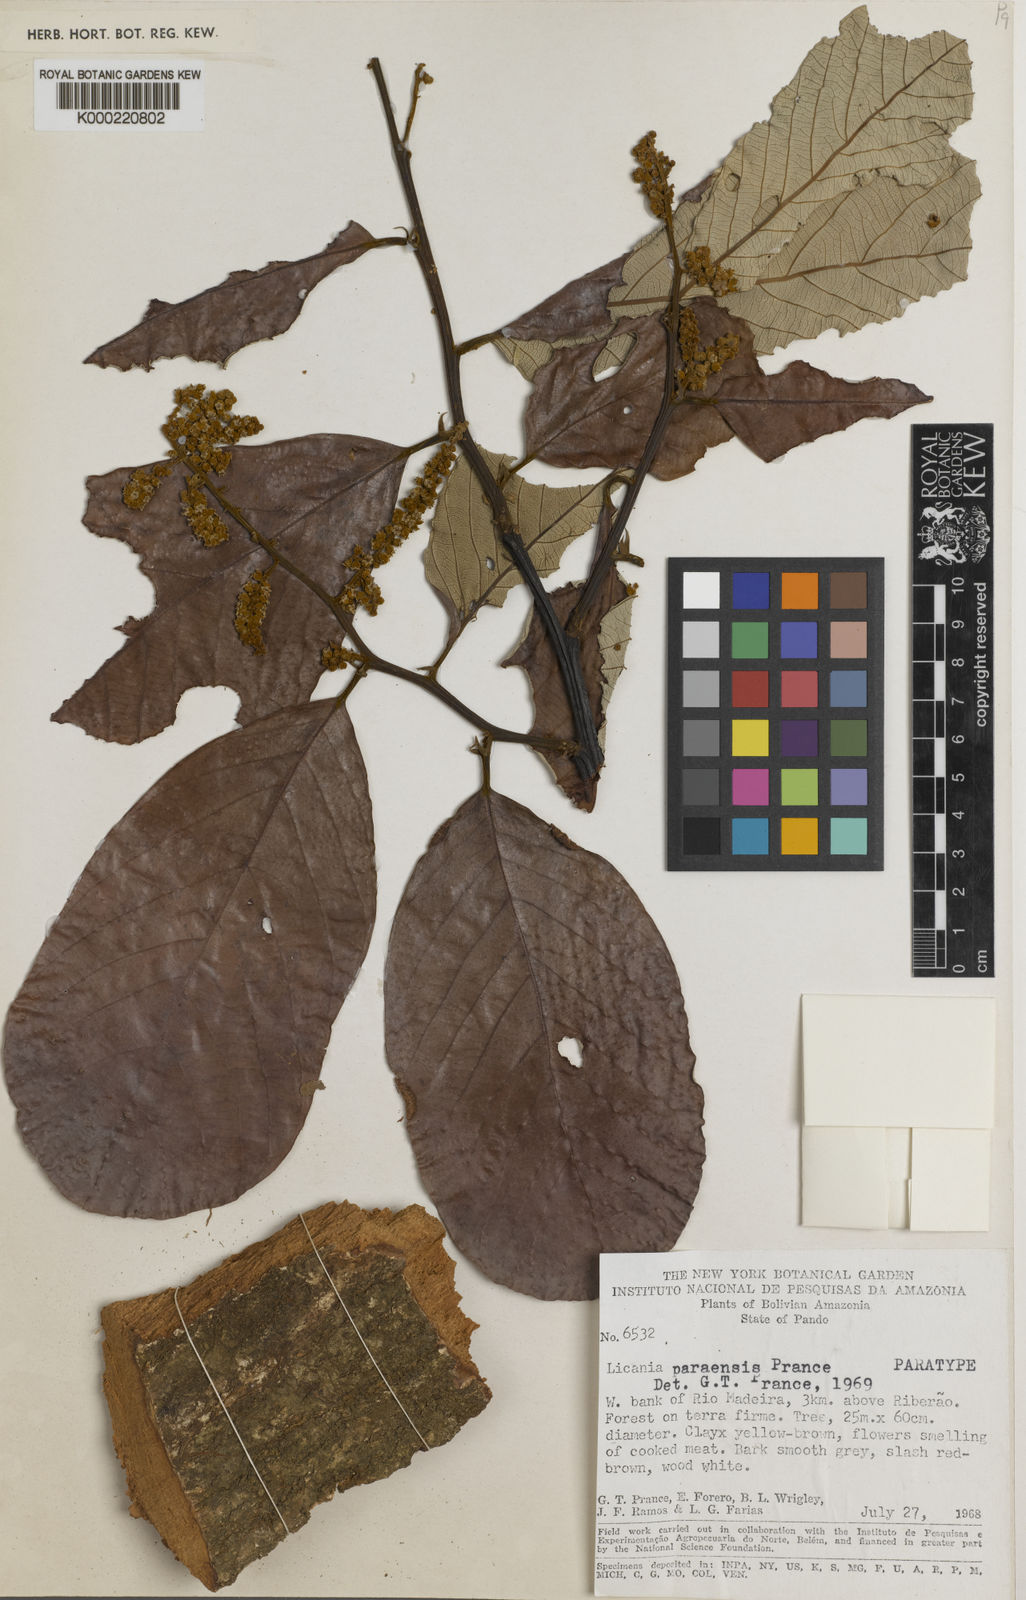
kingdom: Plantae
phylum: Tracheophyta
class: Magnoliopsida
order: Malpighiales
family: Chrysobalanaceae
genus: Licania
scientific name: Licania paraensis
